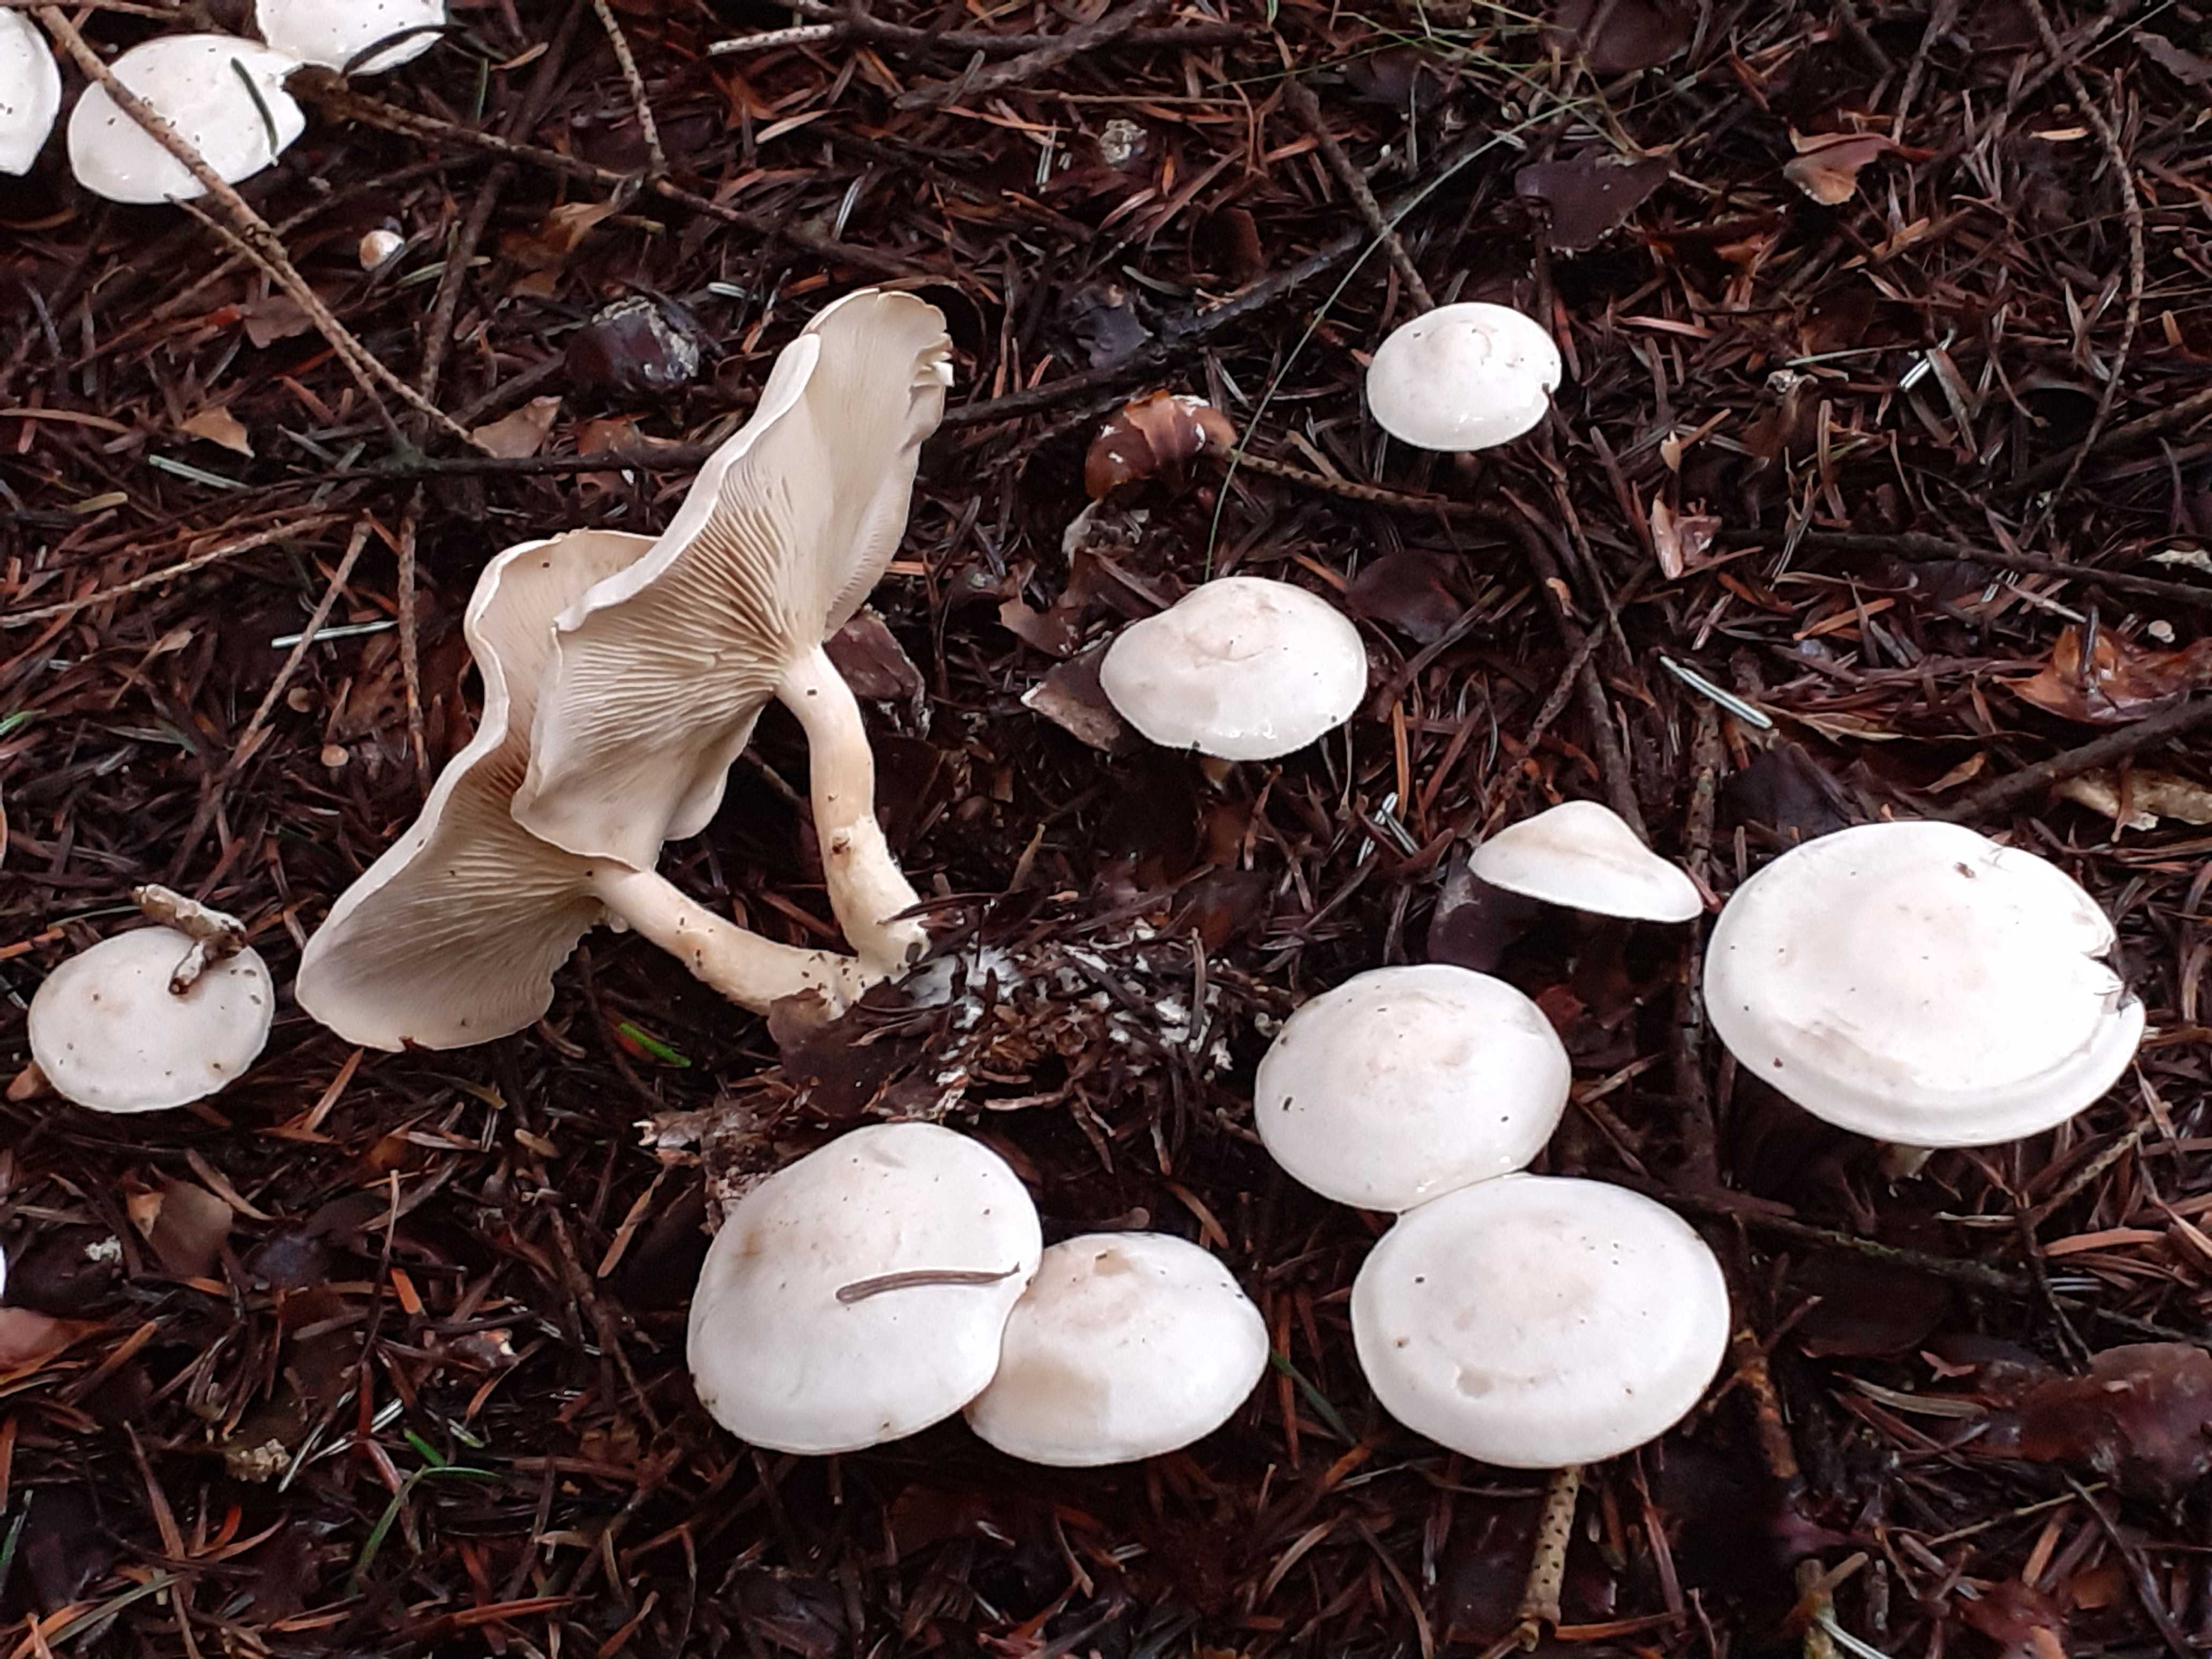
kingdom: Fungi
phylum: Basidiomycota
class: Agaricomycetes
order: Agaricales
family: Tricholomataceae
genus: Clitocybe
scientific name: Clitocybe phyllophila
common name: løv-tragthat
